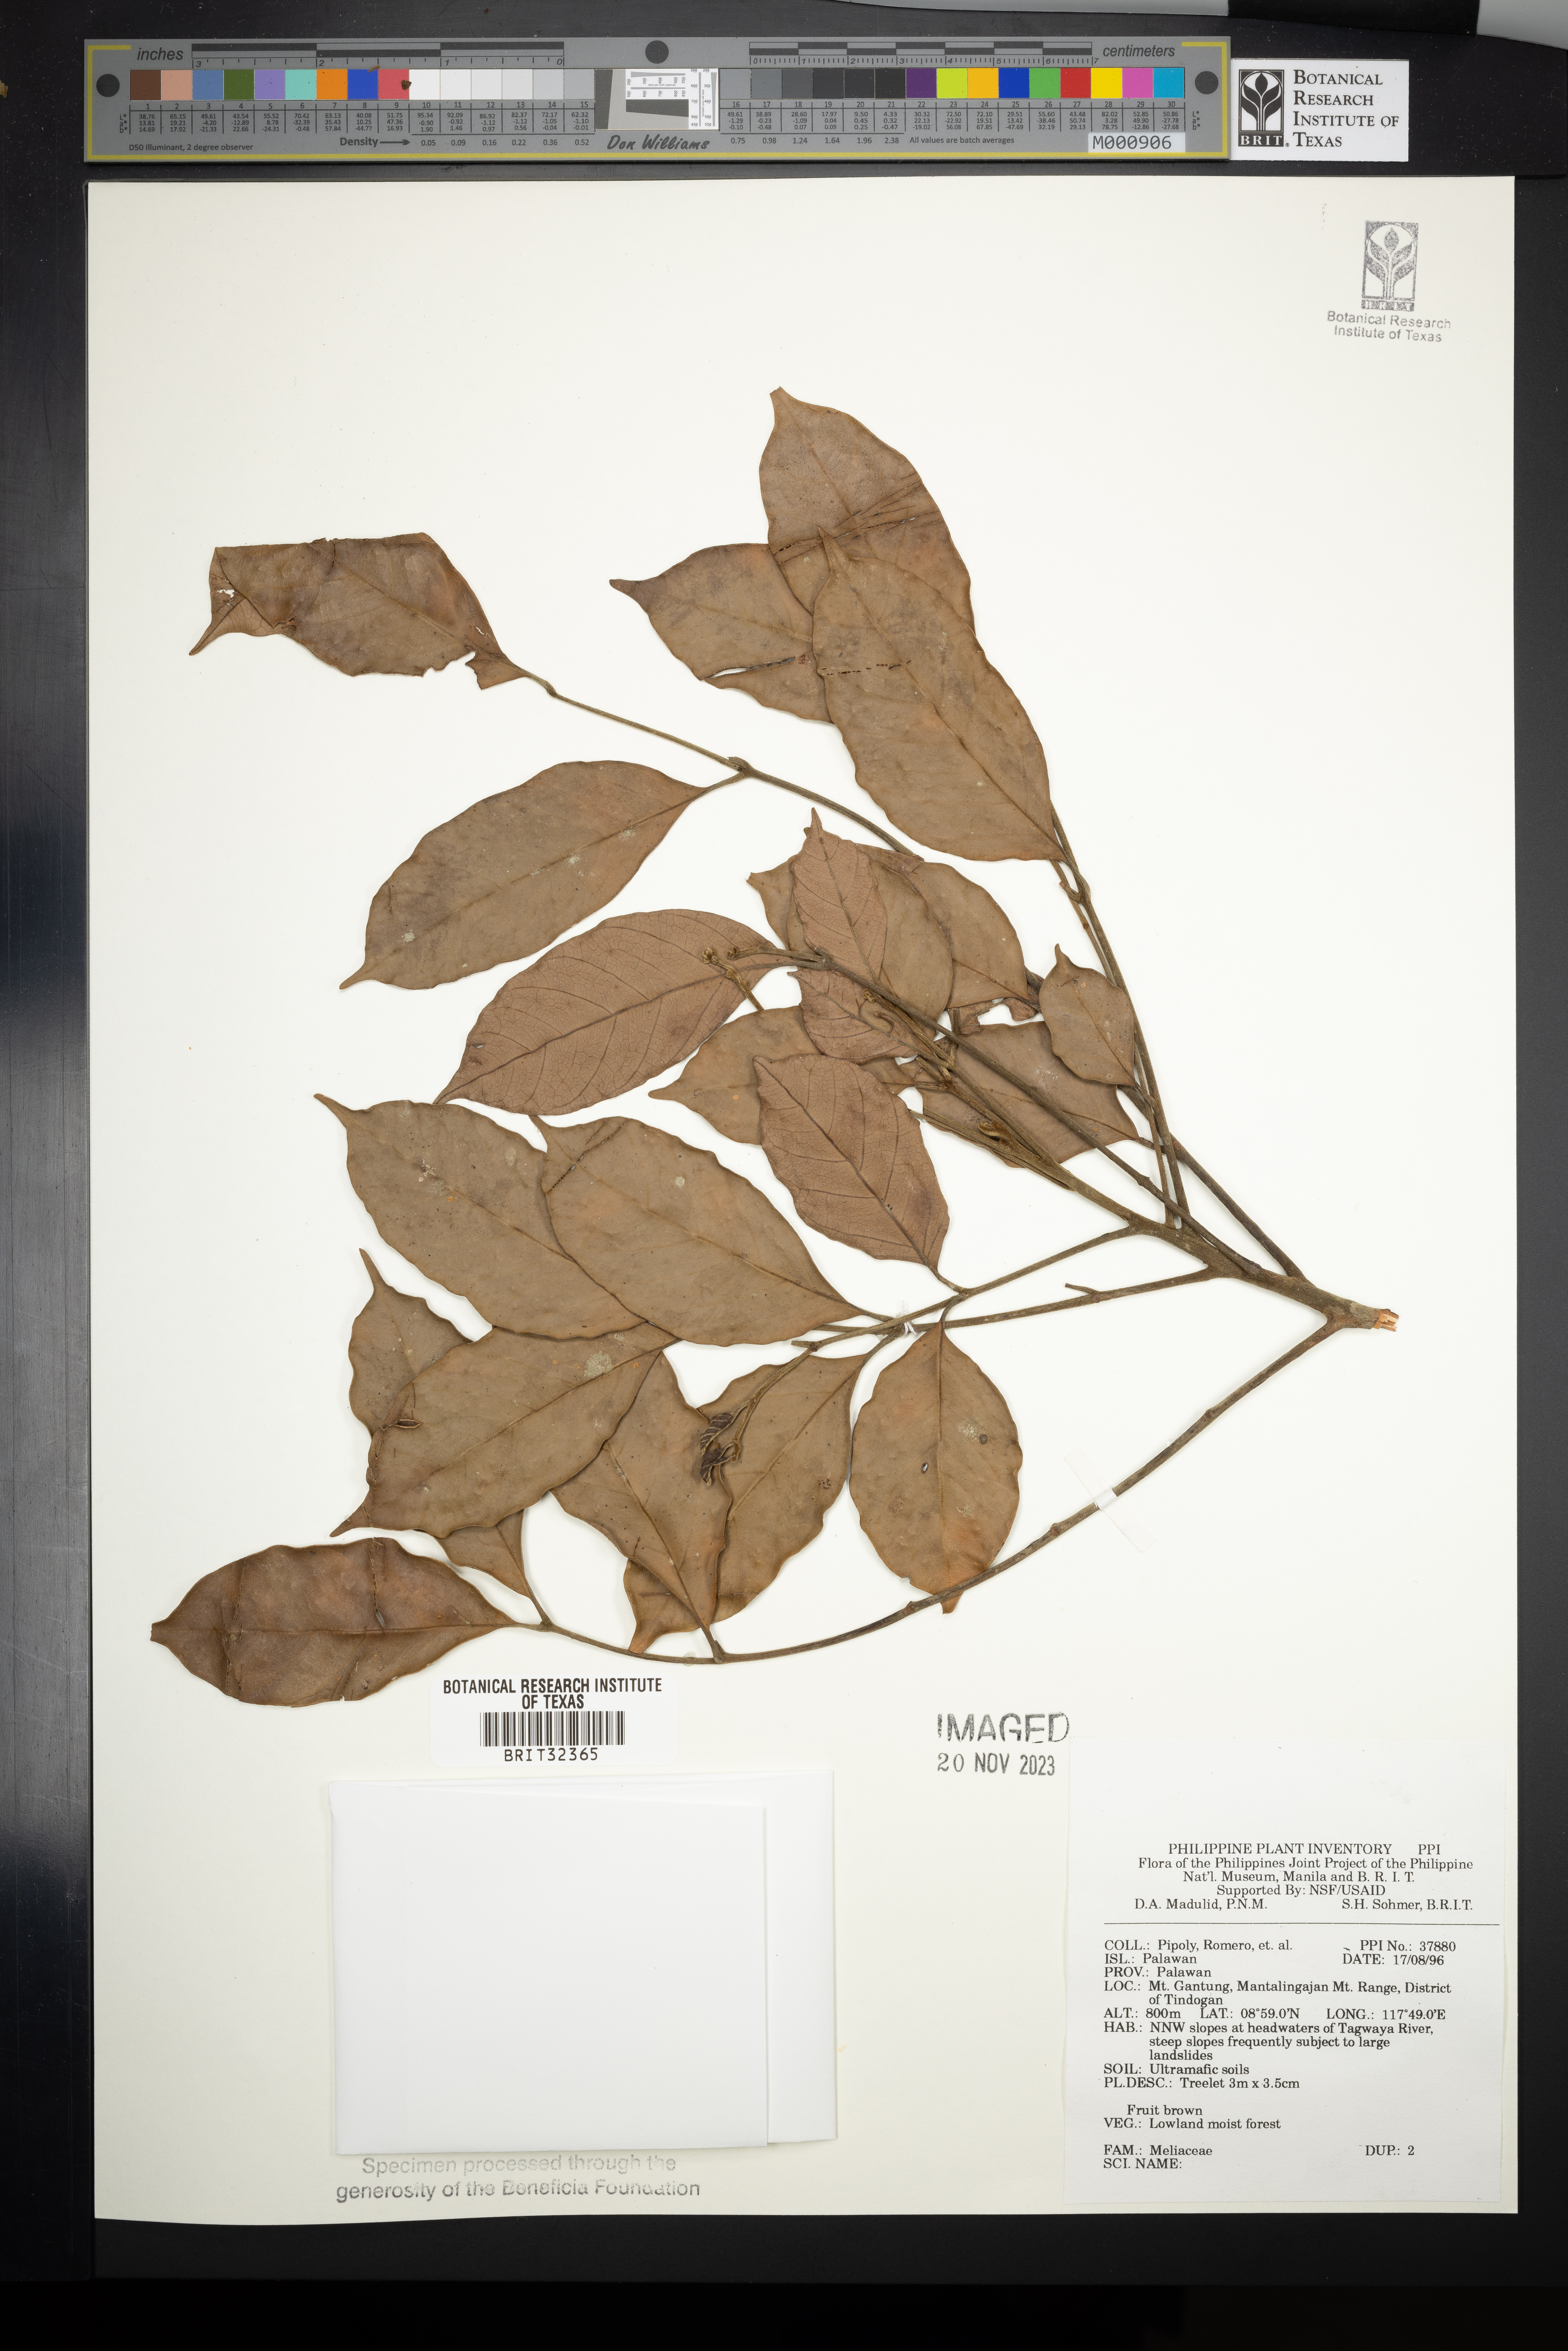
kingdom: Plantae
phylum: Tracheophyta
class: Magnoliopsida
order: Sapindales
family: Meliaceae
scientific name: Meliaceae
